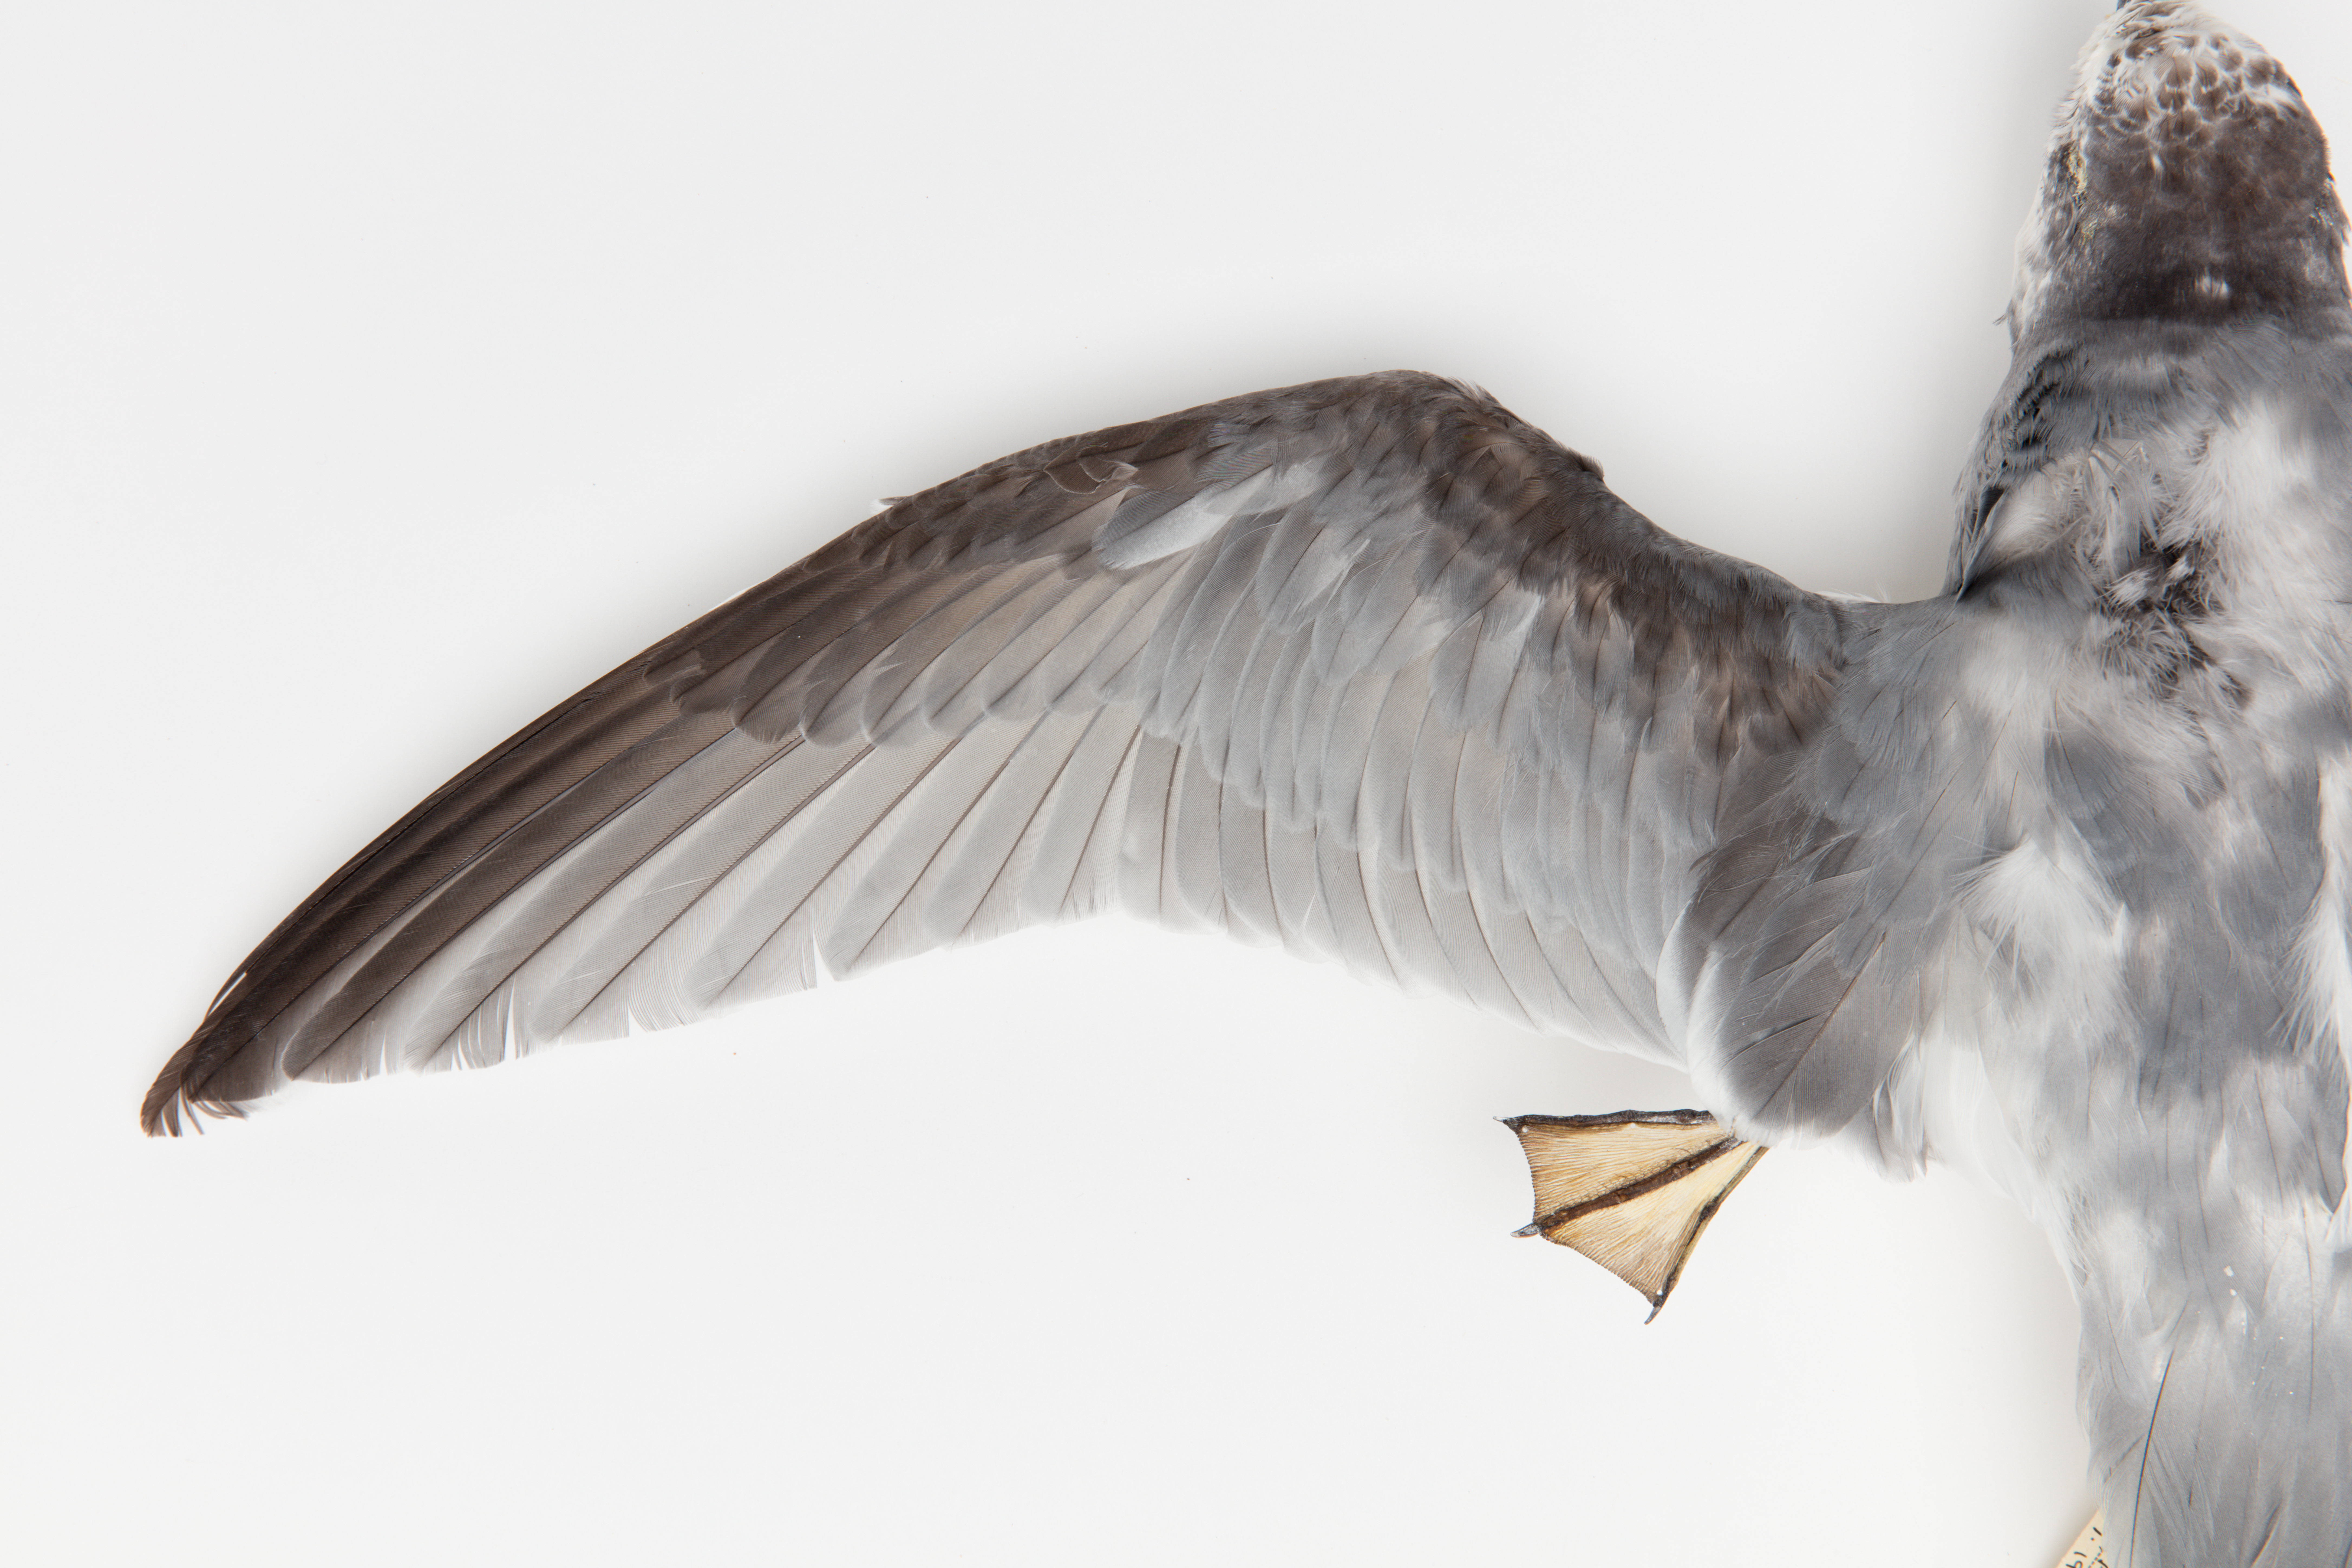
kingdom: Animalia
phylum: Chordata
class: Aves
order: Procellariiformes
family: Procellariidae
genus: Halobaena
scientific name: Halobaena caerulea
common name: Blue petrel
